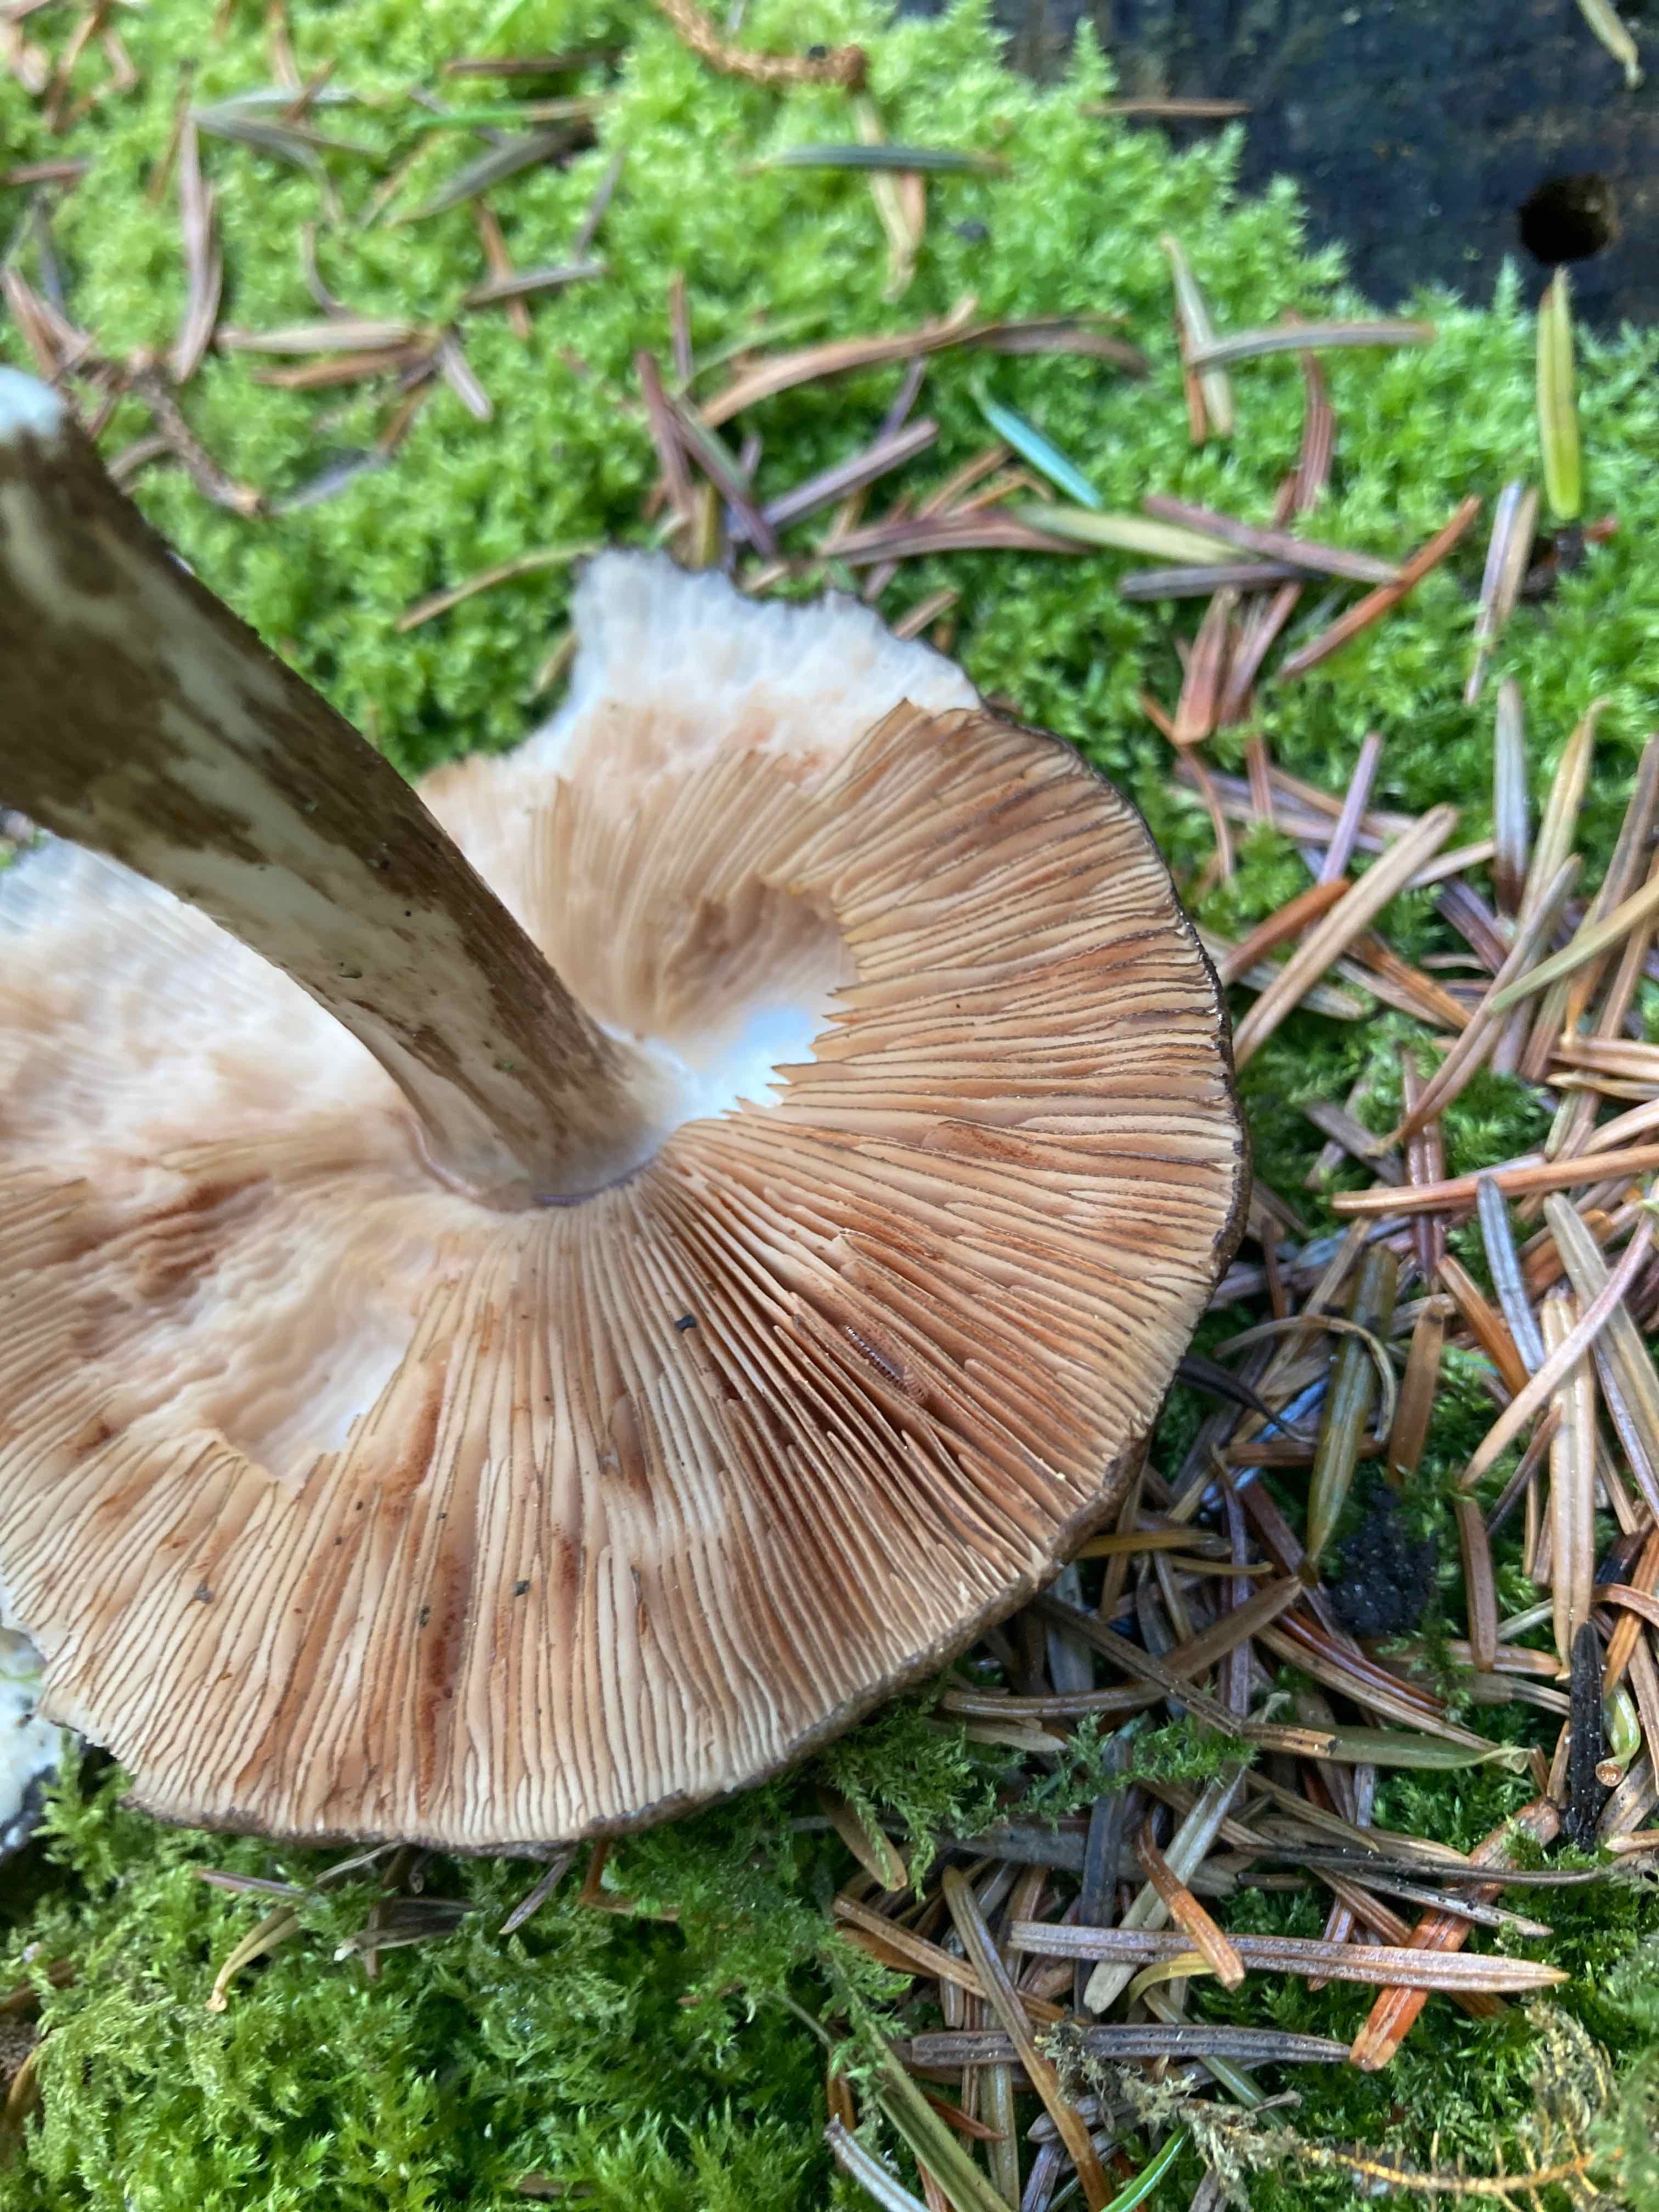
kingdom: Fungi
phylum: Basidiomycota
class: Agaricomycetes
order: Agaricales
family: Pluteaceae
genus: Pluteus
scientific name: Pluteus atromarginatus
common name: sortrandet skærmhat
